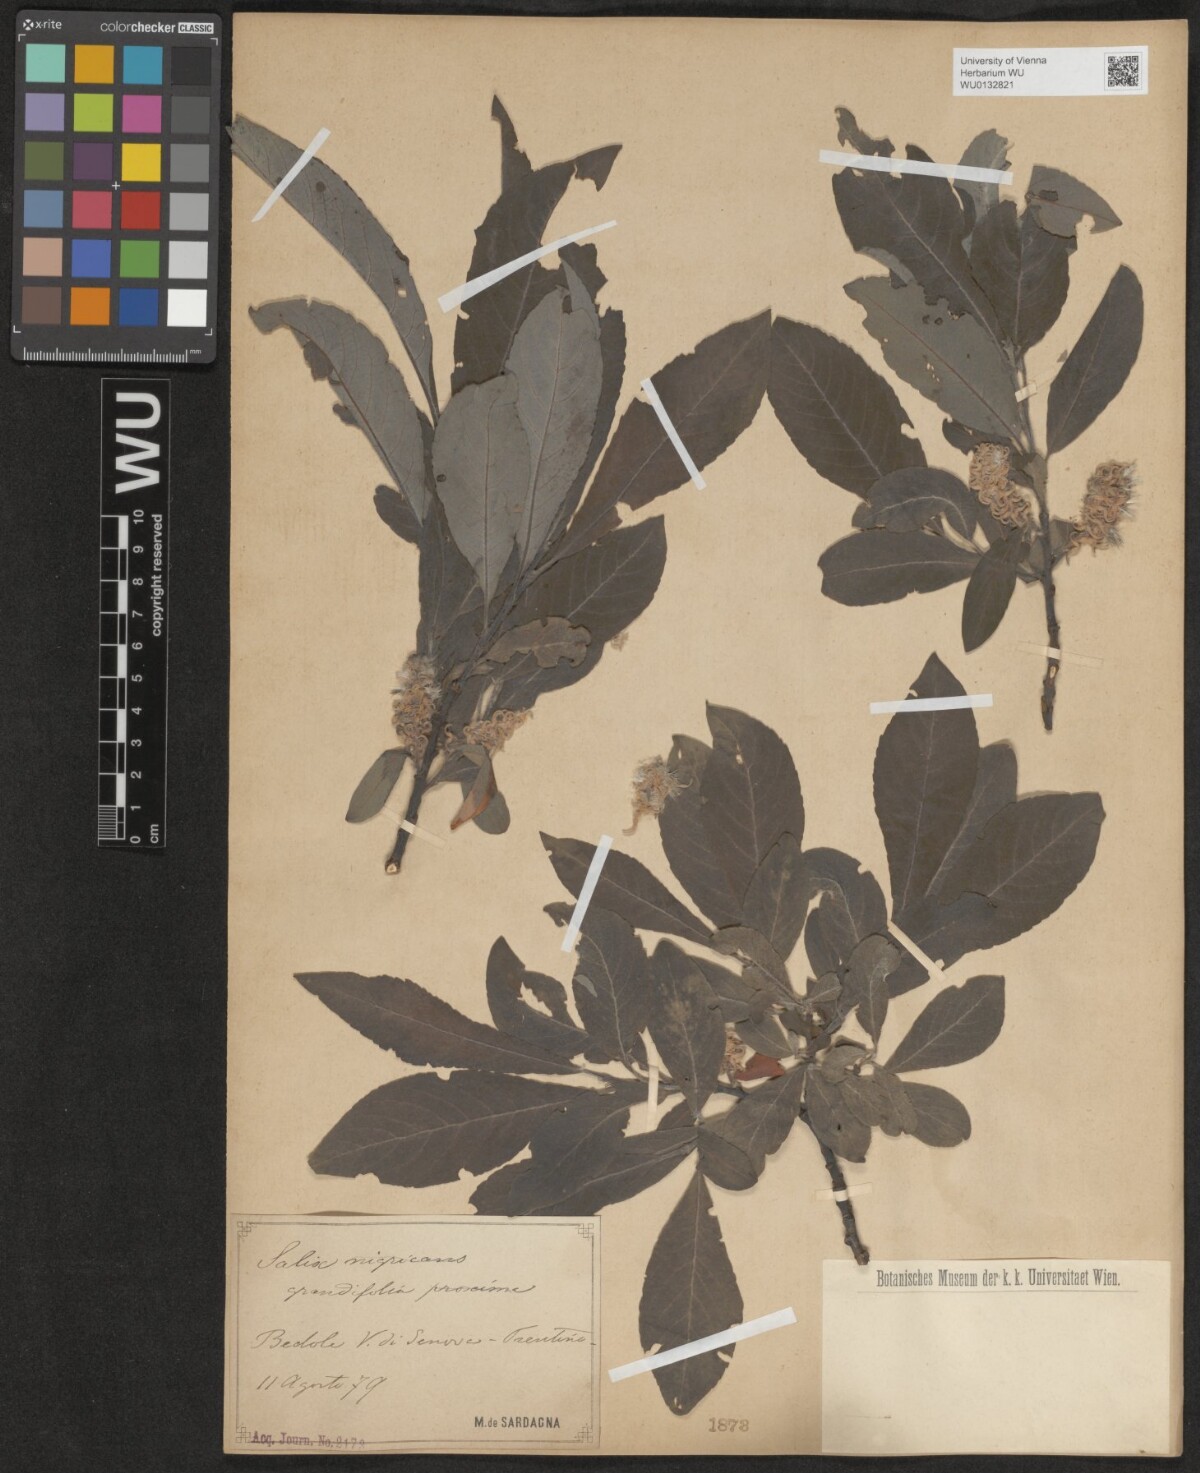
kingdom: Plantae
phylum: Tracheophyta
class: Magnoliopsida
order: Malpighiales
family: Salicaceae
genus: Salix
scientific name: Salix appendiculata
